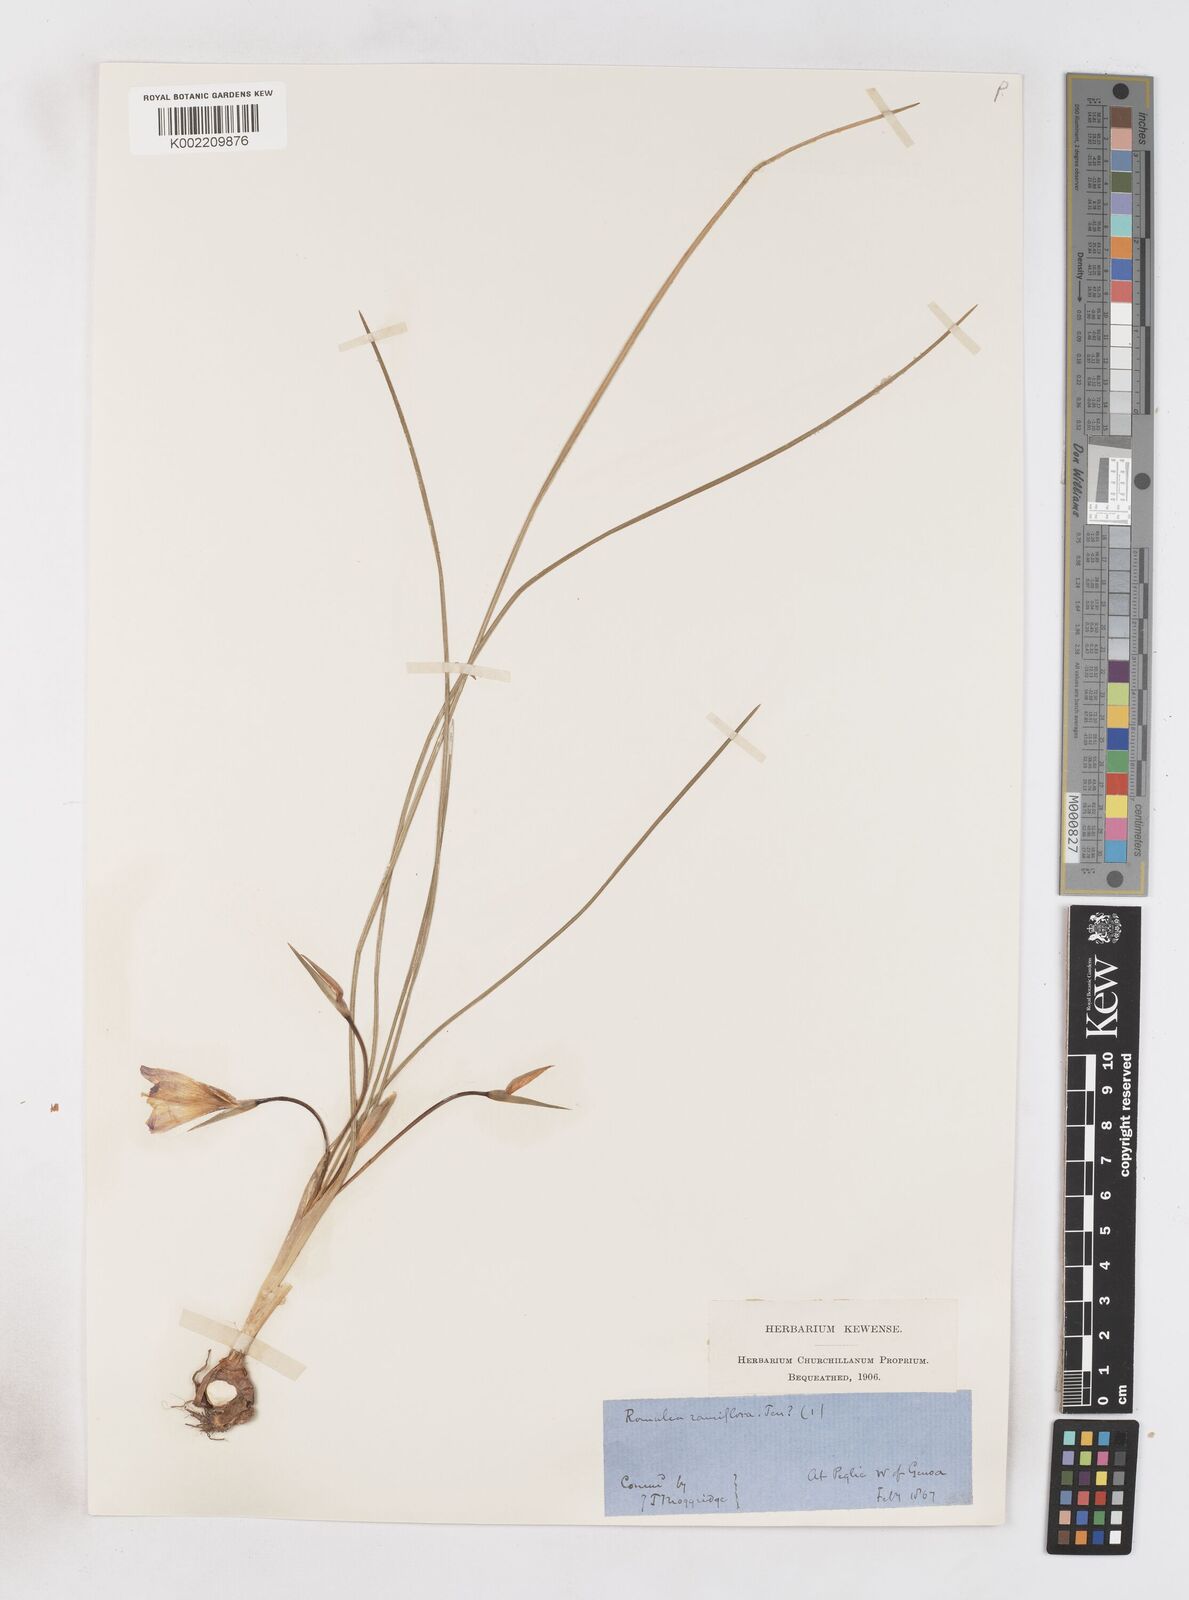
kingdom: Plantae
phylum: Tracheophyta
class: Liliopsida
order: Asparagales
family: Iridaceae
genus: Romulea
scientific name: Romulea
